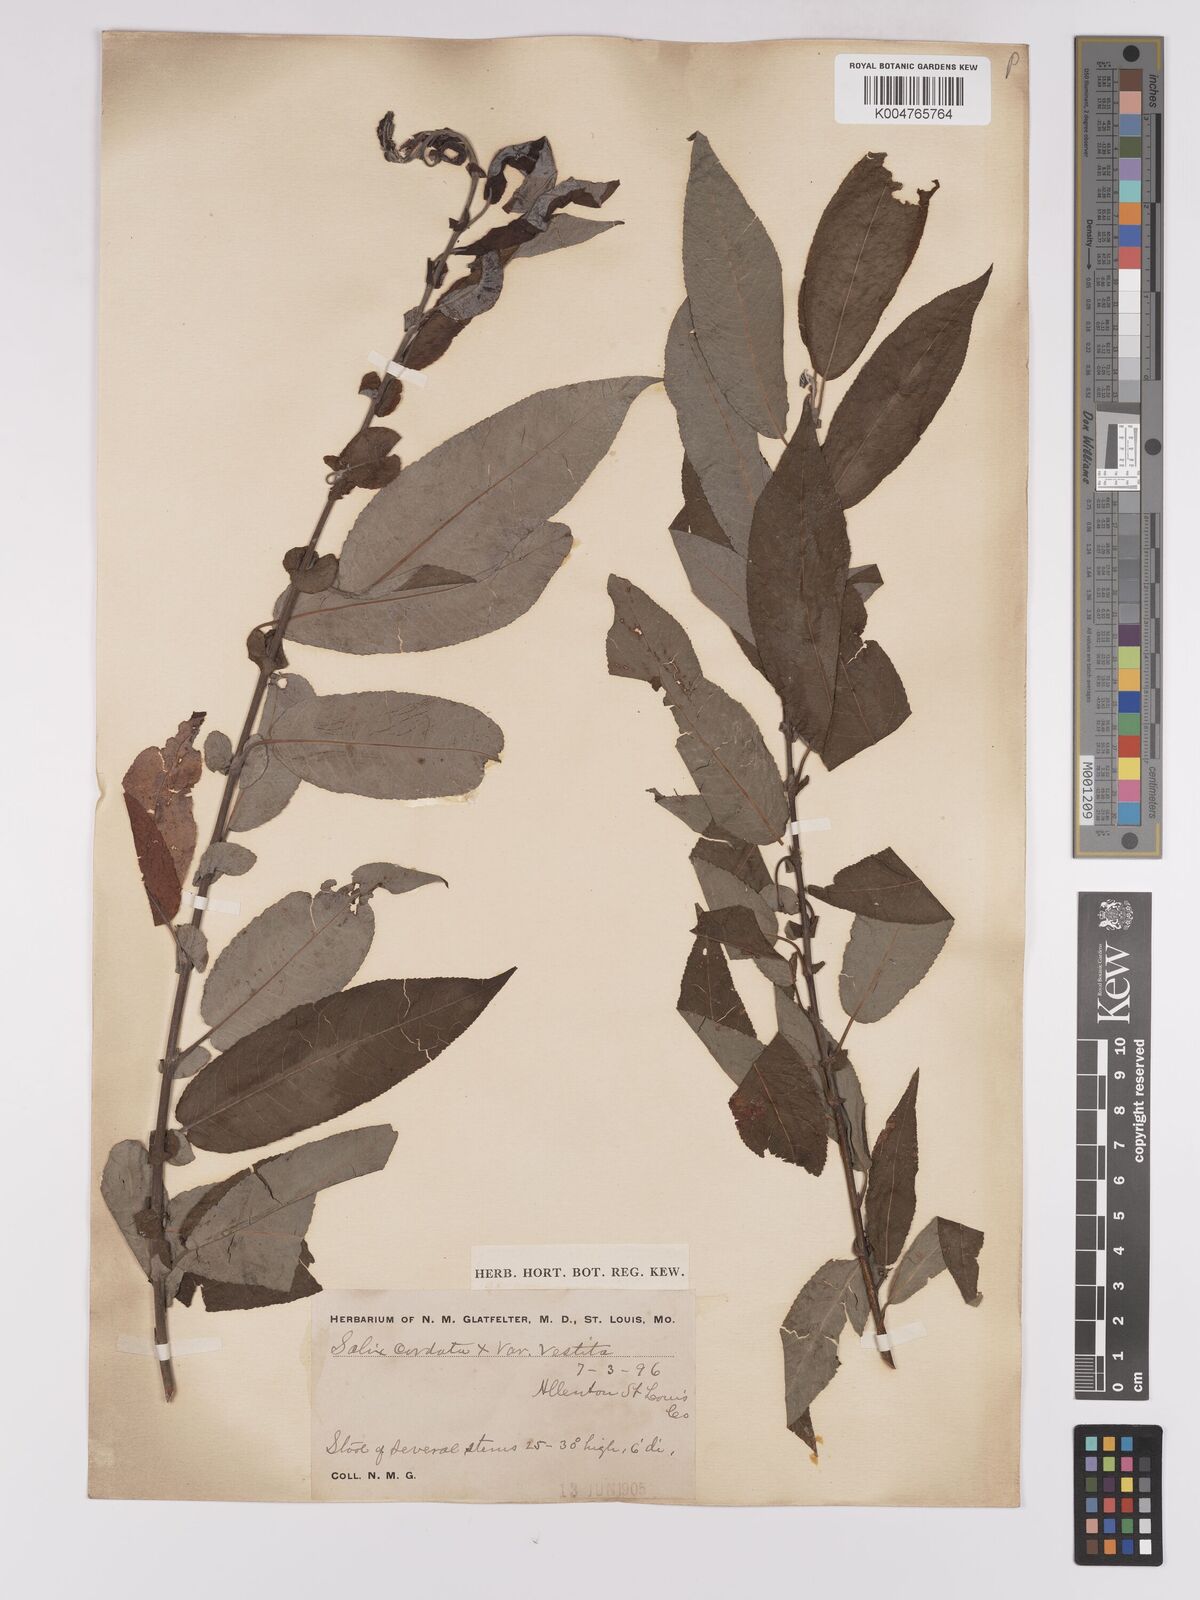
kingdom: Plantae
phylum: Tracheophyta
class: Magnoliopsida
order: Malpighiales
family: Salicaceae
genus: Salix
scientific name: Salix cordata
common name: Heart-leaf willow
